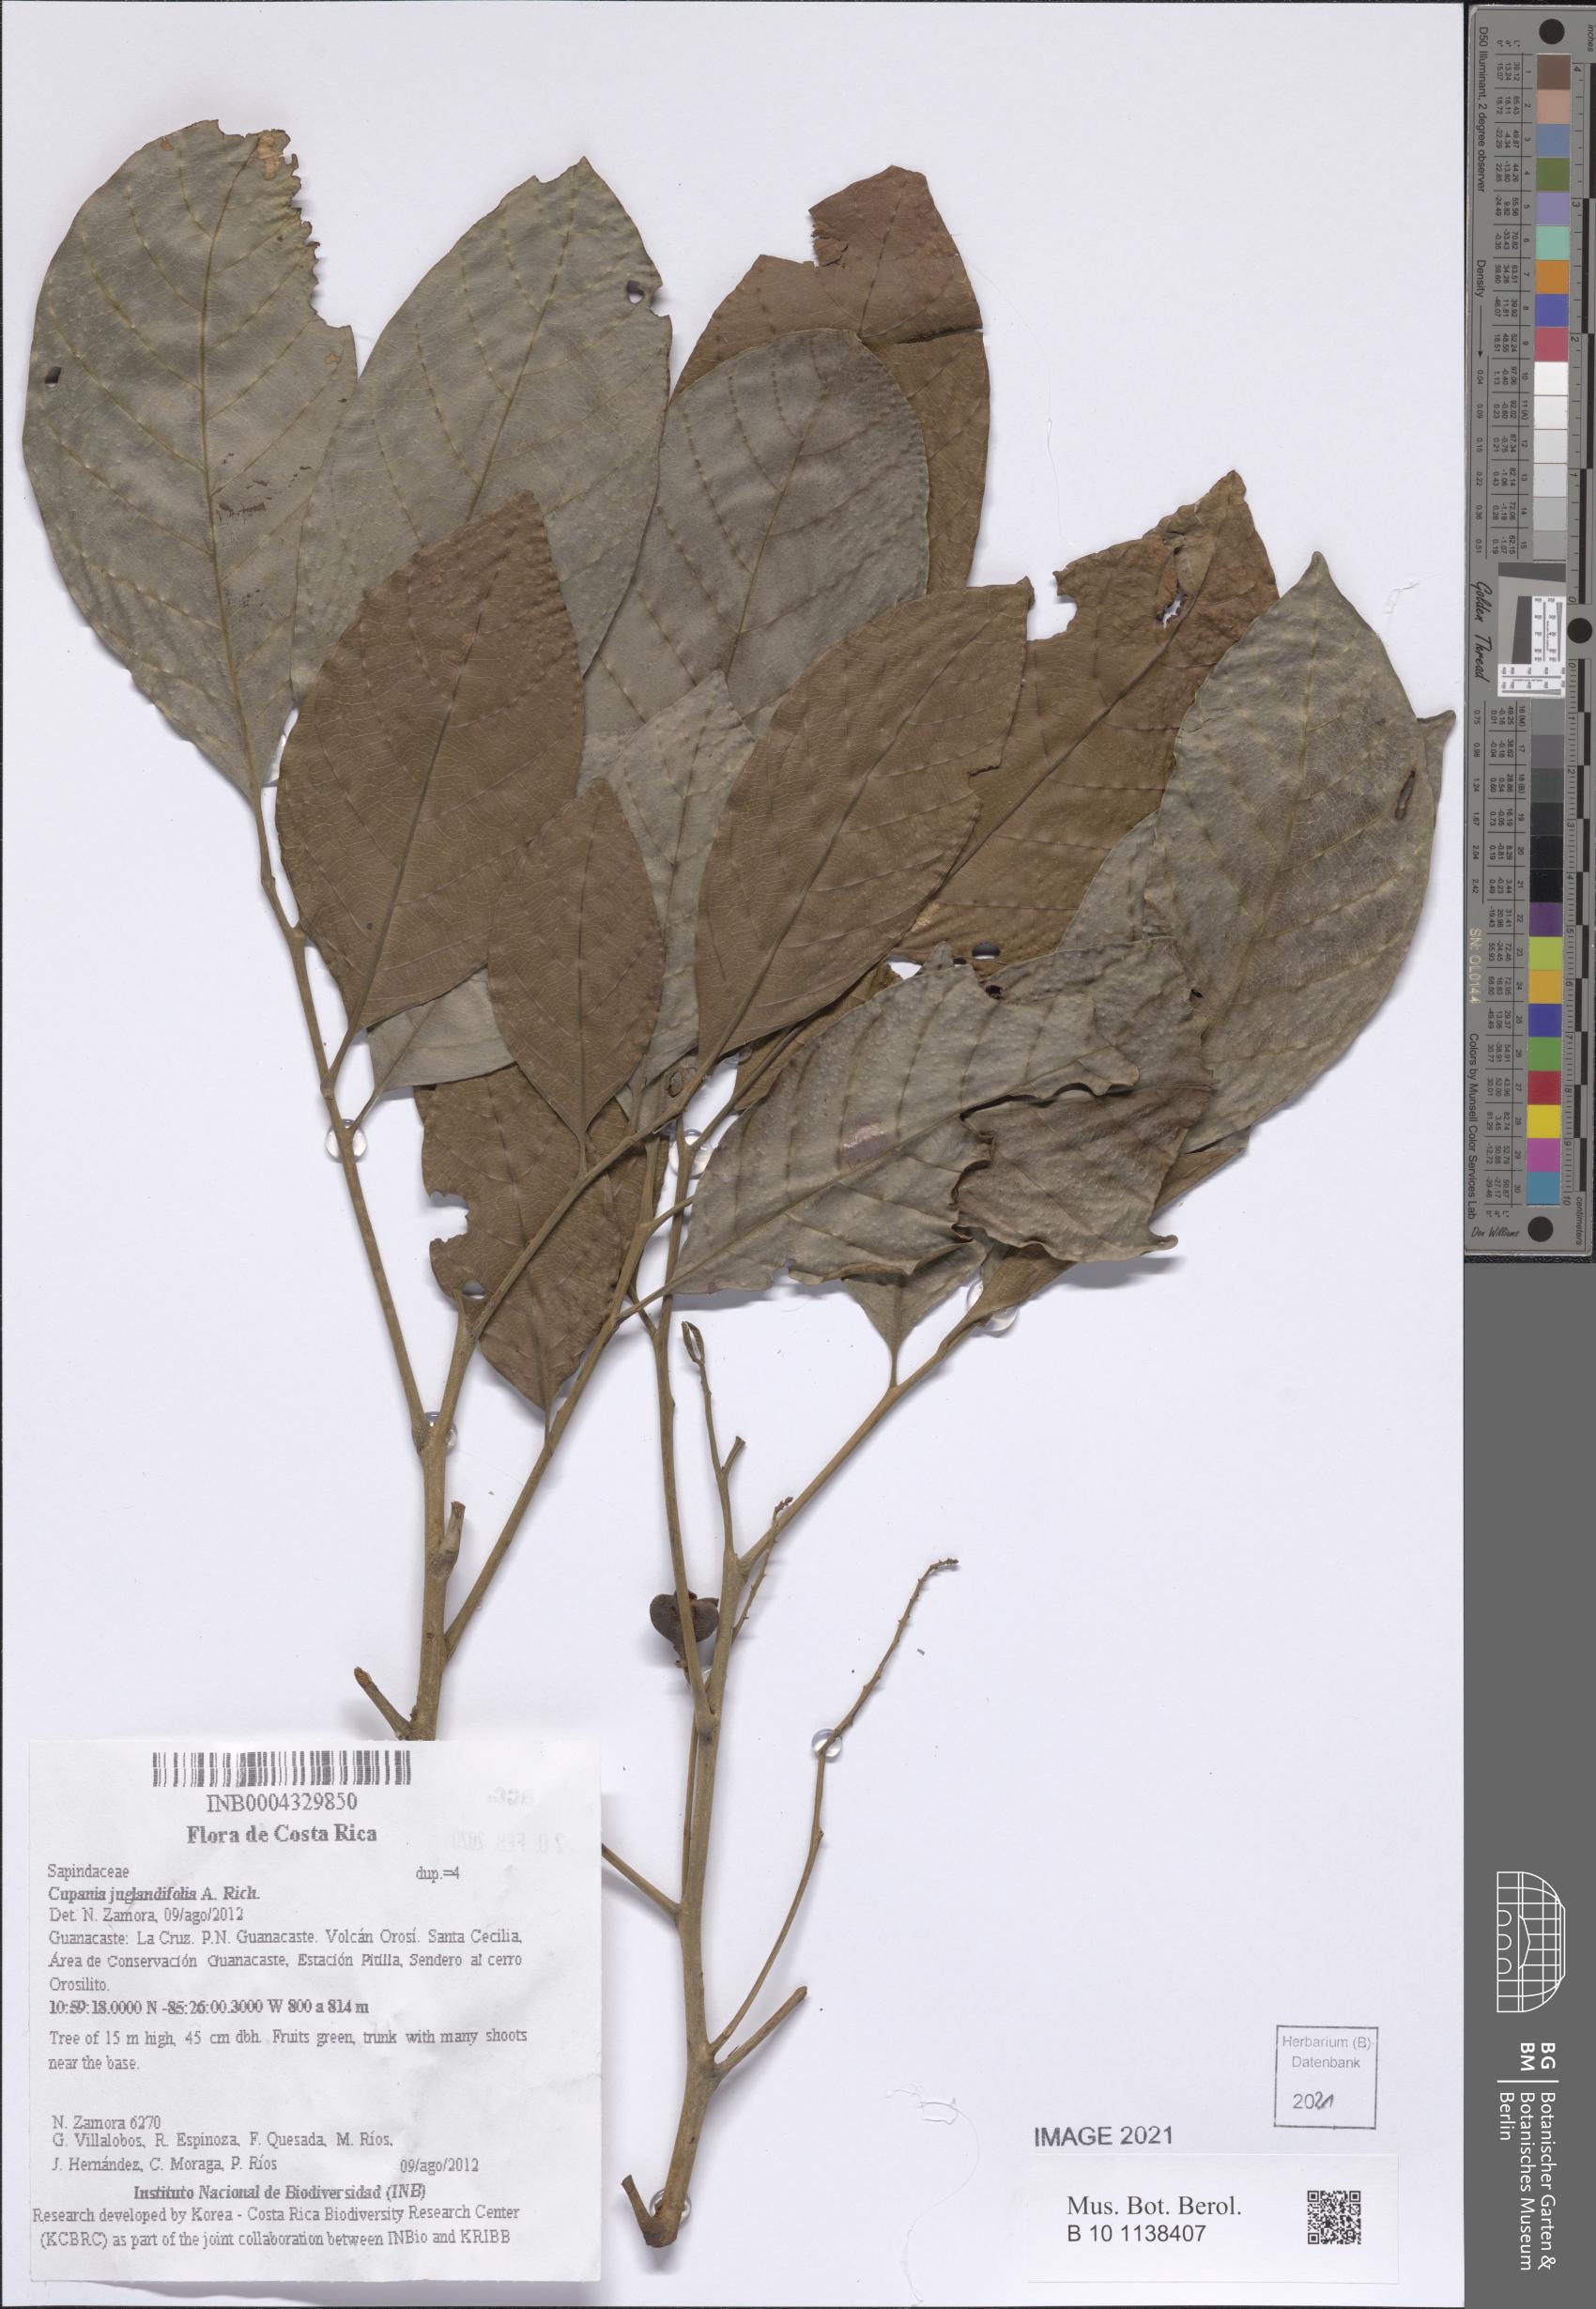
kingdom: Plantae
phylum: Tracheophyta
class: Magnoliopsida
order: Sapindales
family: Sapindaceae
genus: Cupania
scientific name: Cupania juglandifolia
